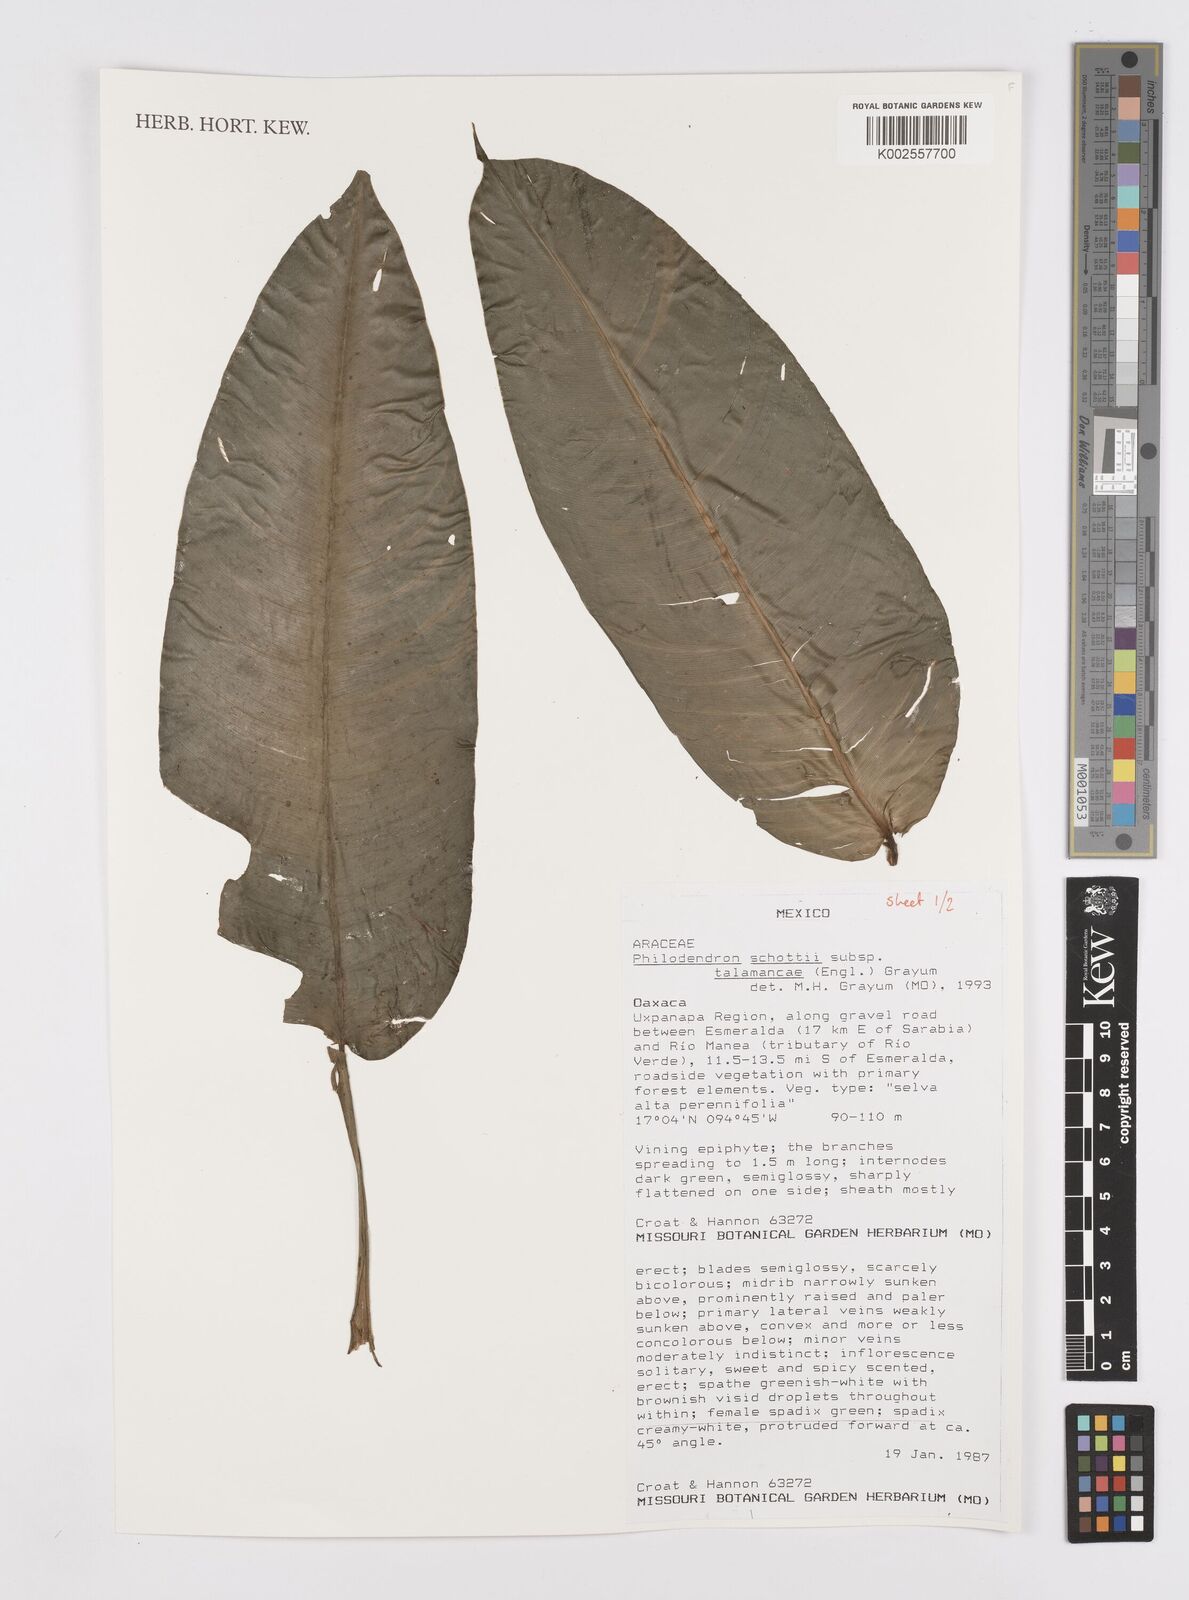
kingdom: Plantae
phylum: Tracheophyta
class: Liliopsida
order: Alismatales
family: Araceae
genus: Philodendron
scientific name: Philodendron schottii
